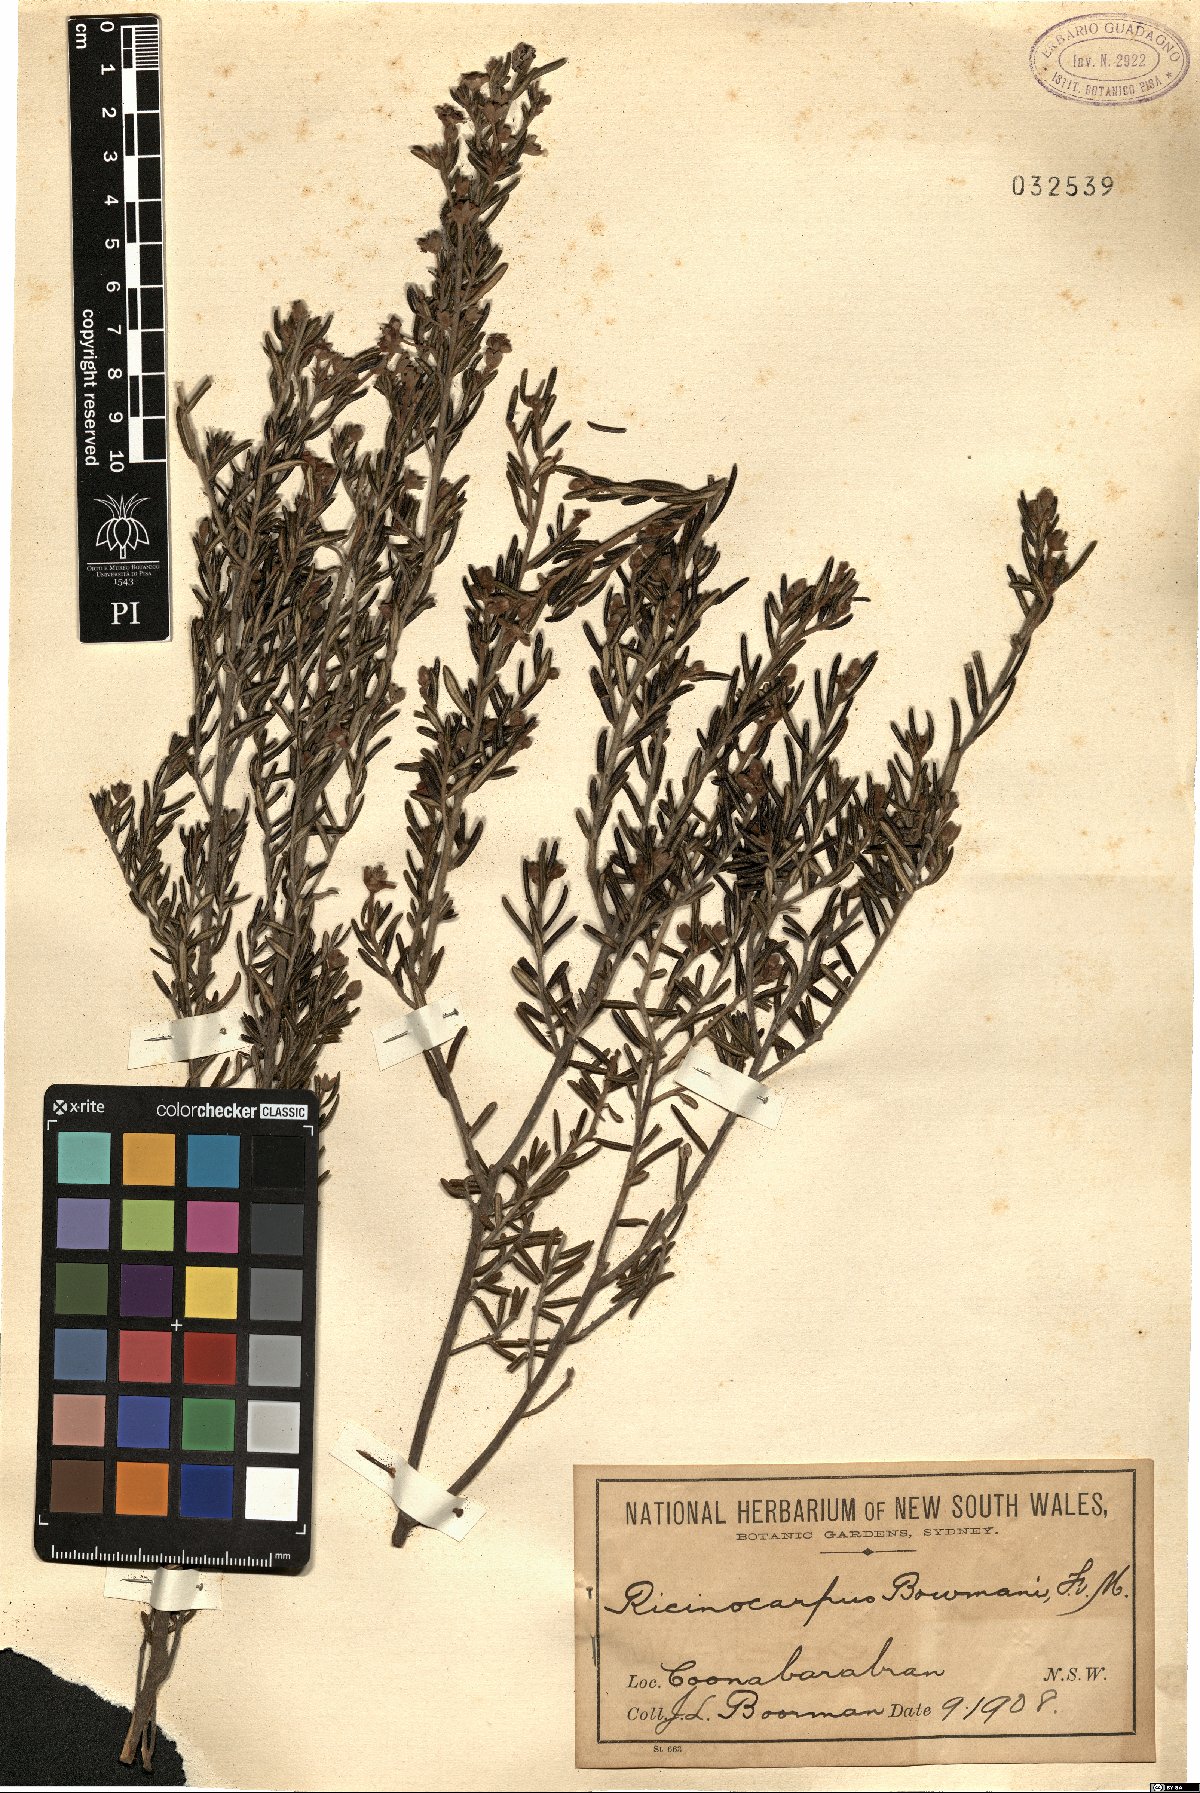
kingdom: Plantae
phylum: Tracheophyta
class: Magnoliopsida
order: Malpighiales
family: Euphorbiaceae
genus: Ricinocarpos
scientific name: Ricinocarpos bowmanii
